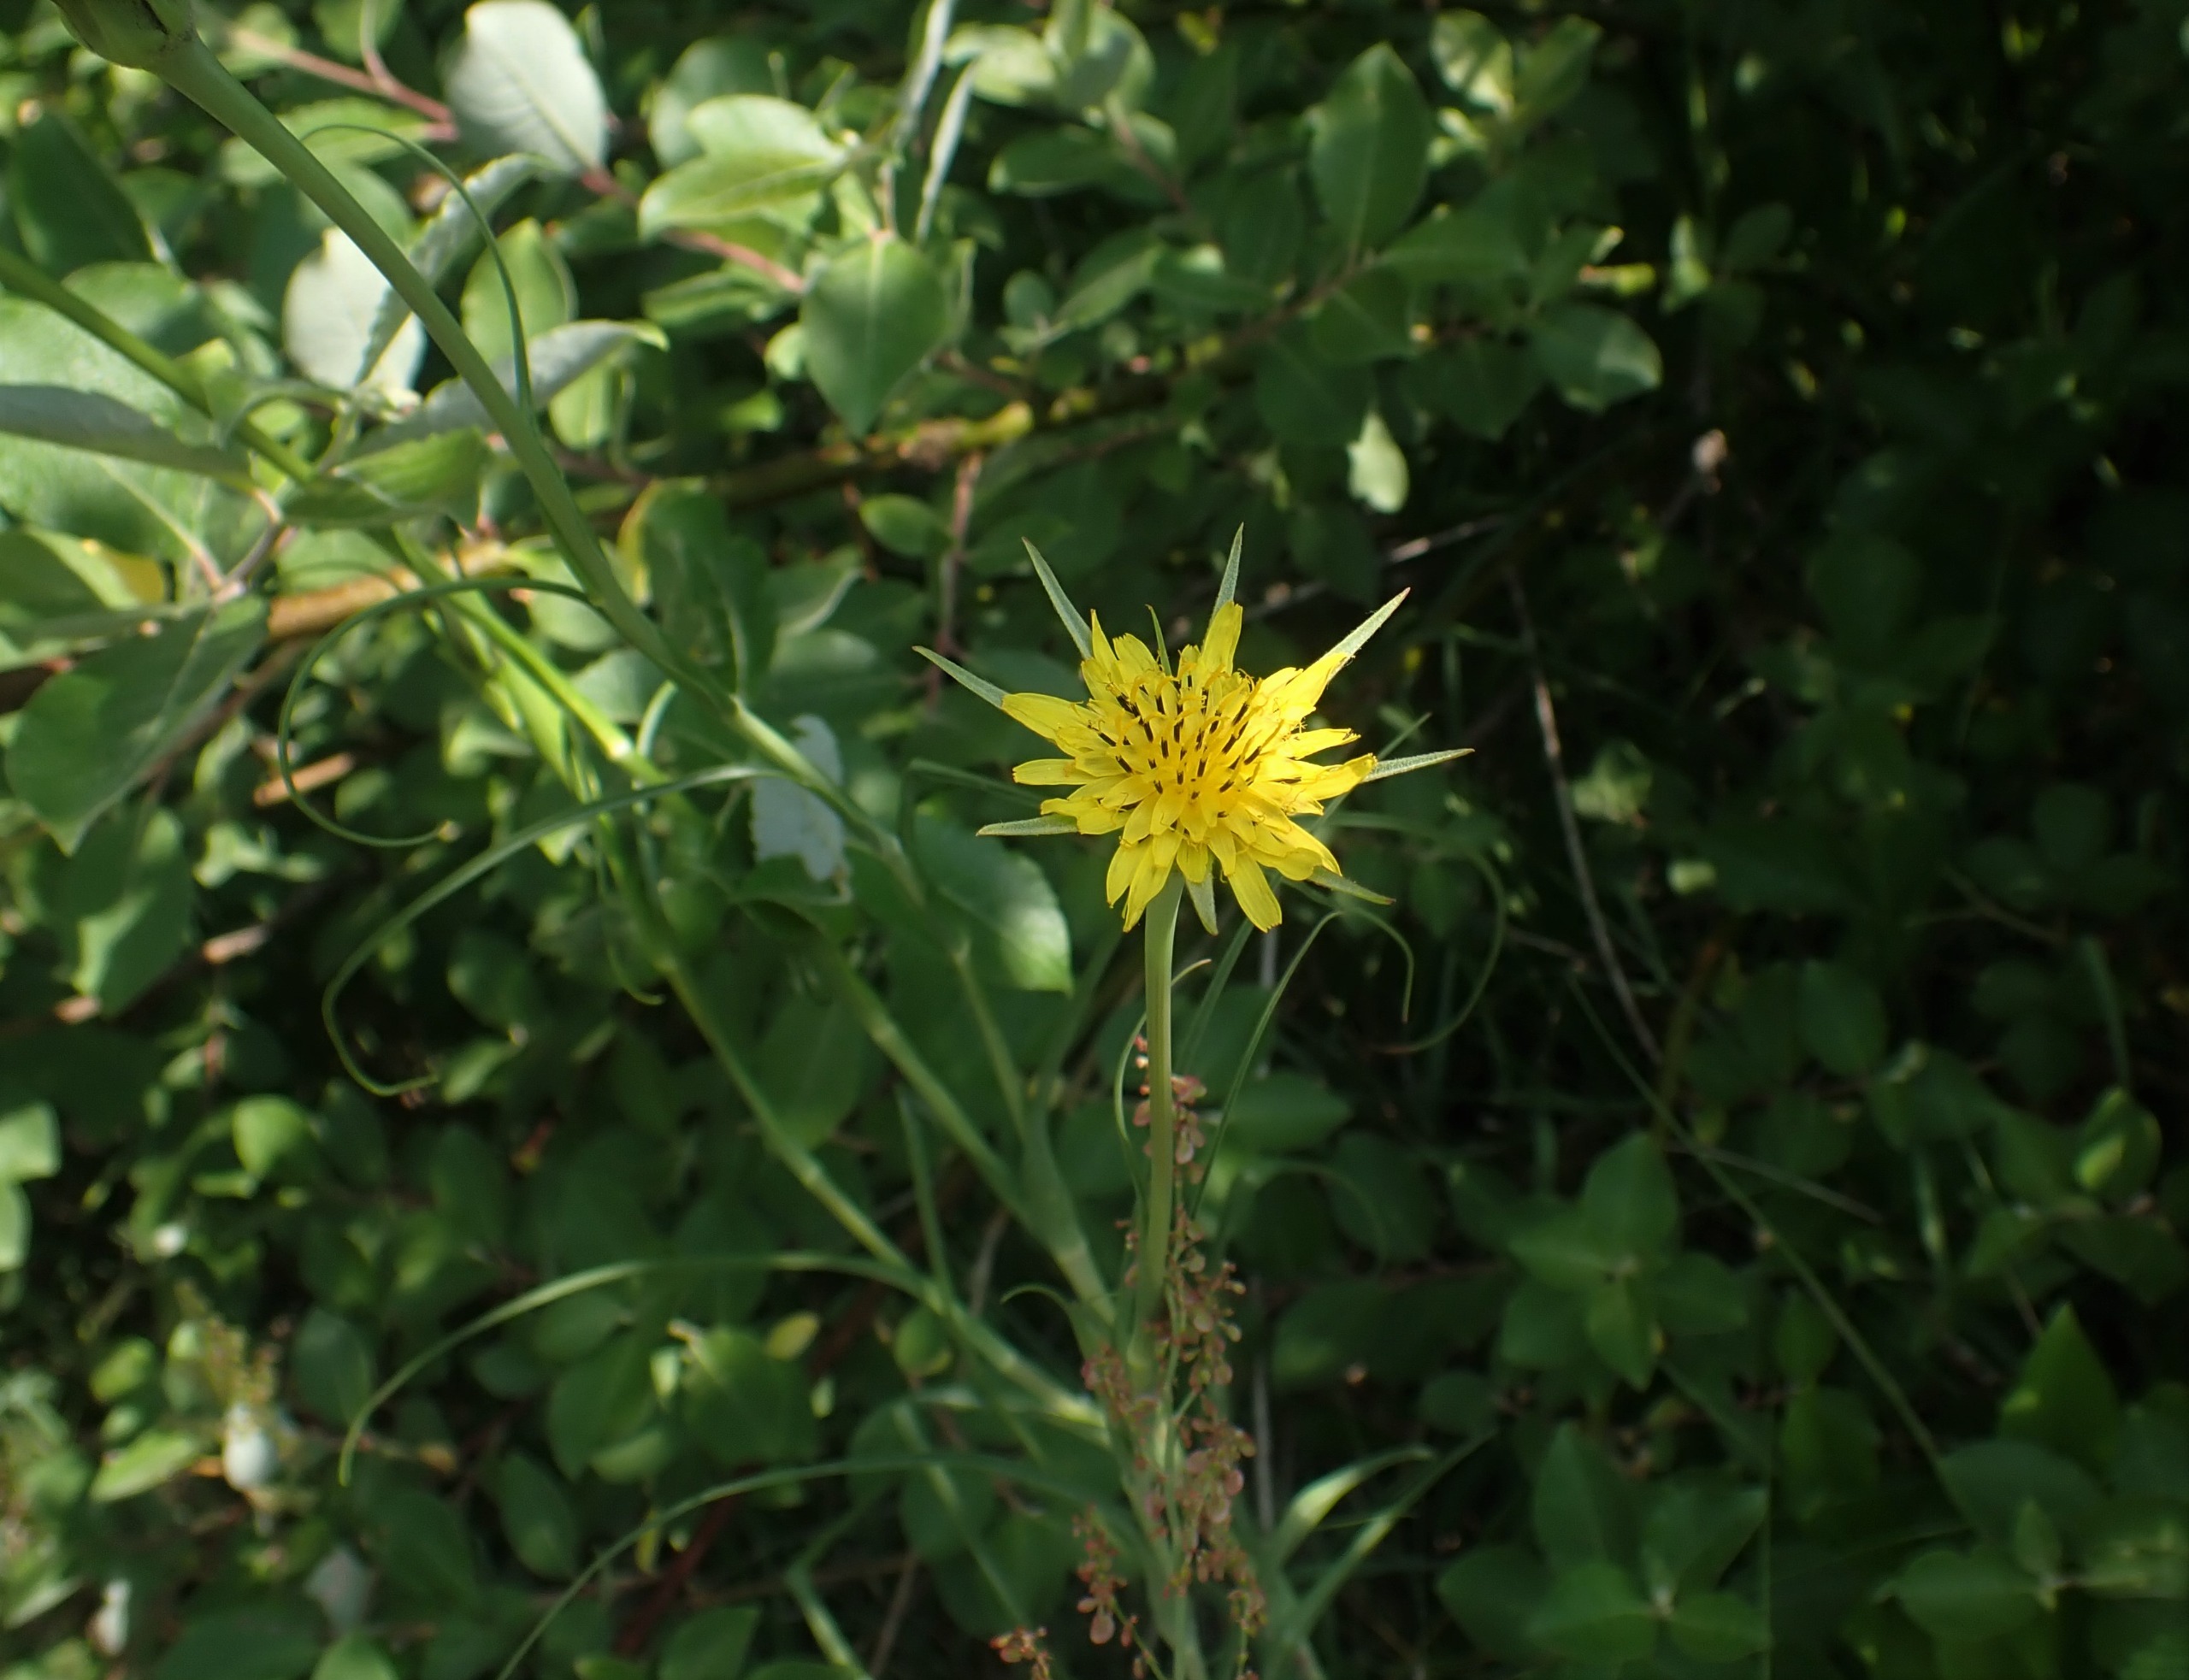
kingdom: Plantae
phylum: Tracheophyta
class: Magnoliopsida
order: Asterales
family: Asteraceae
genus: Tragopogon
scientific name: Tragopogon minor
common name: Småkronet gedeskæg
